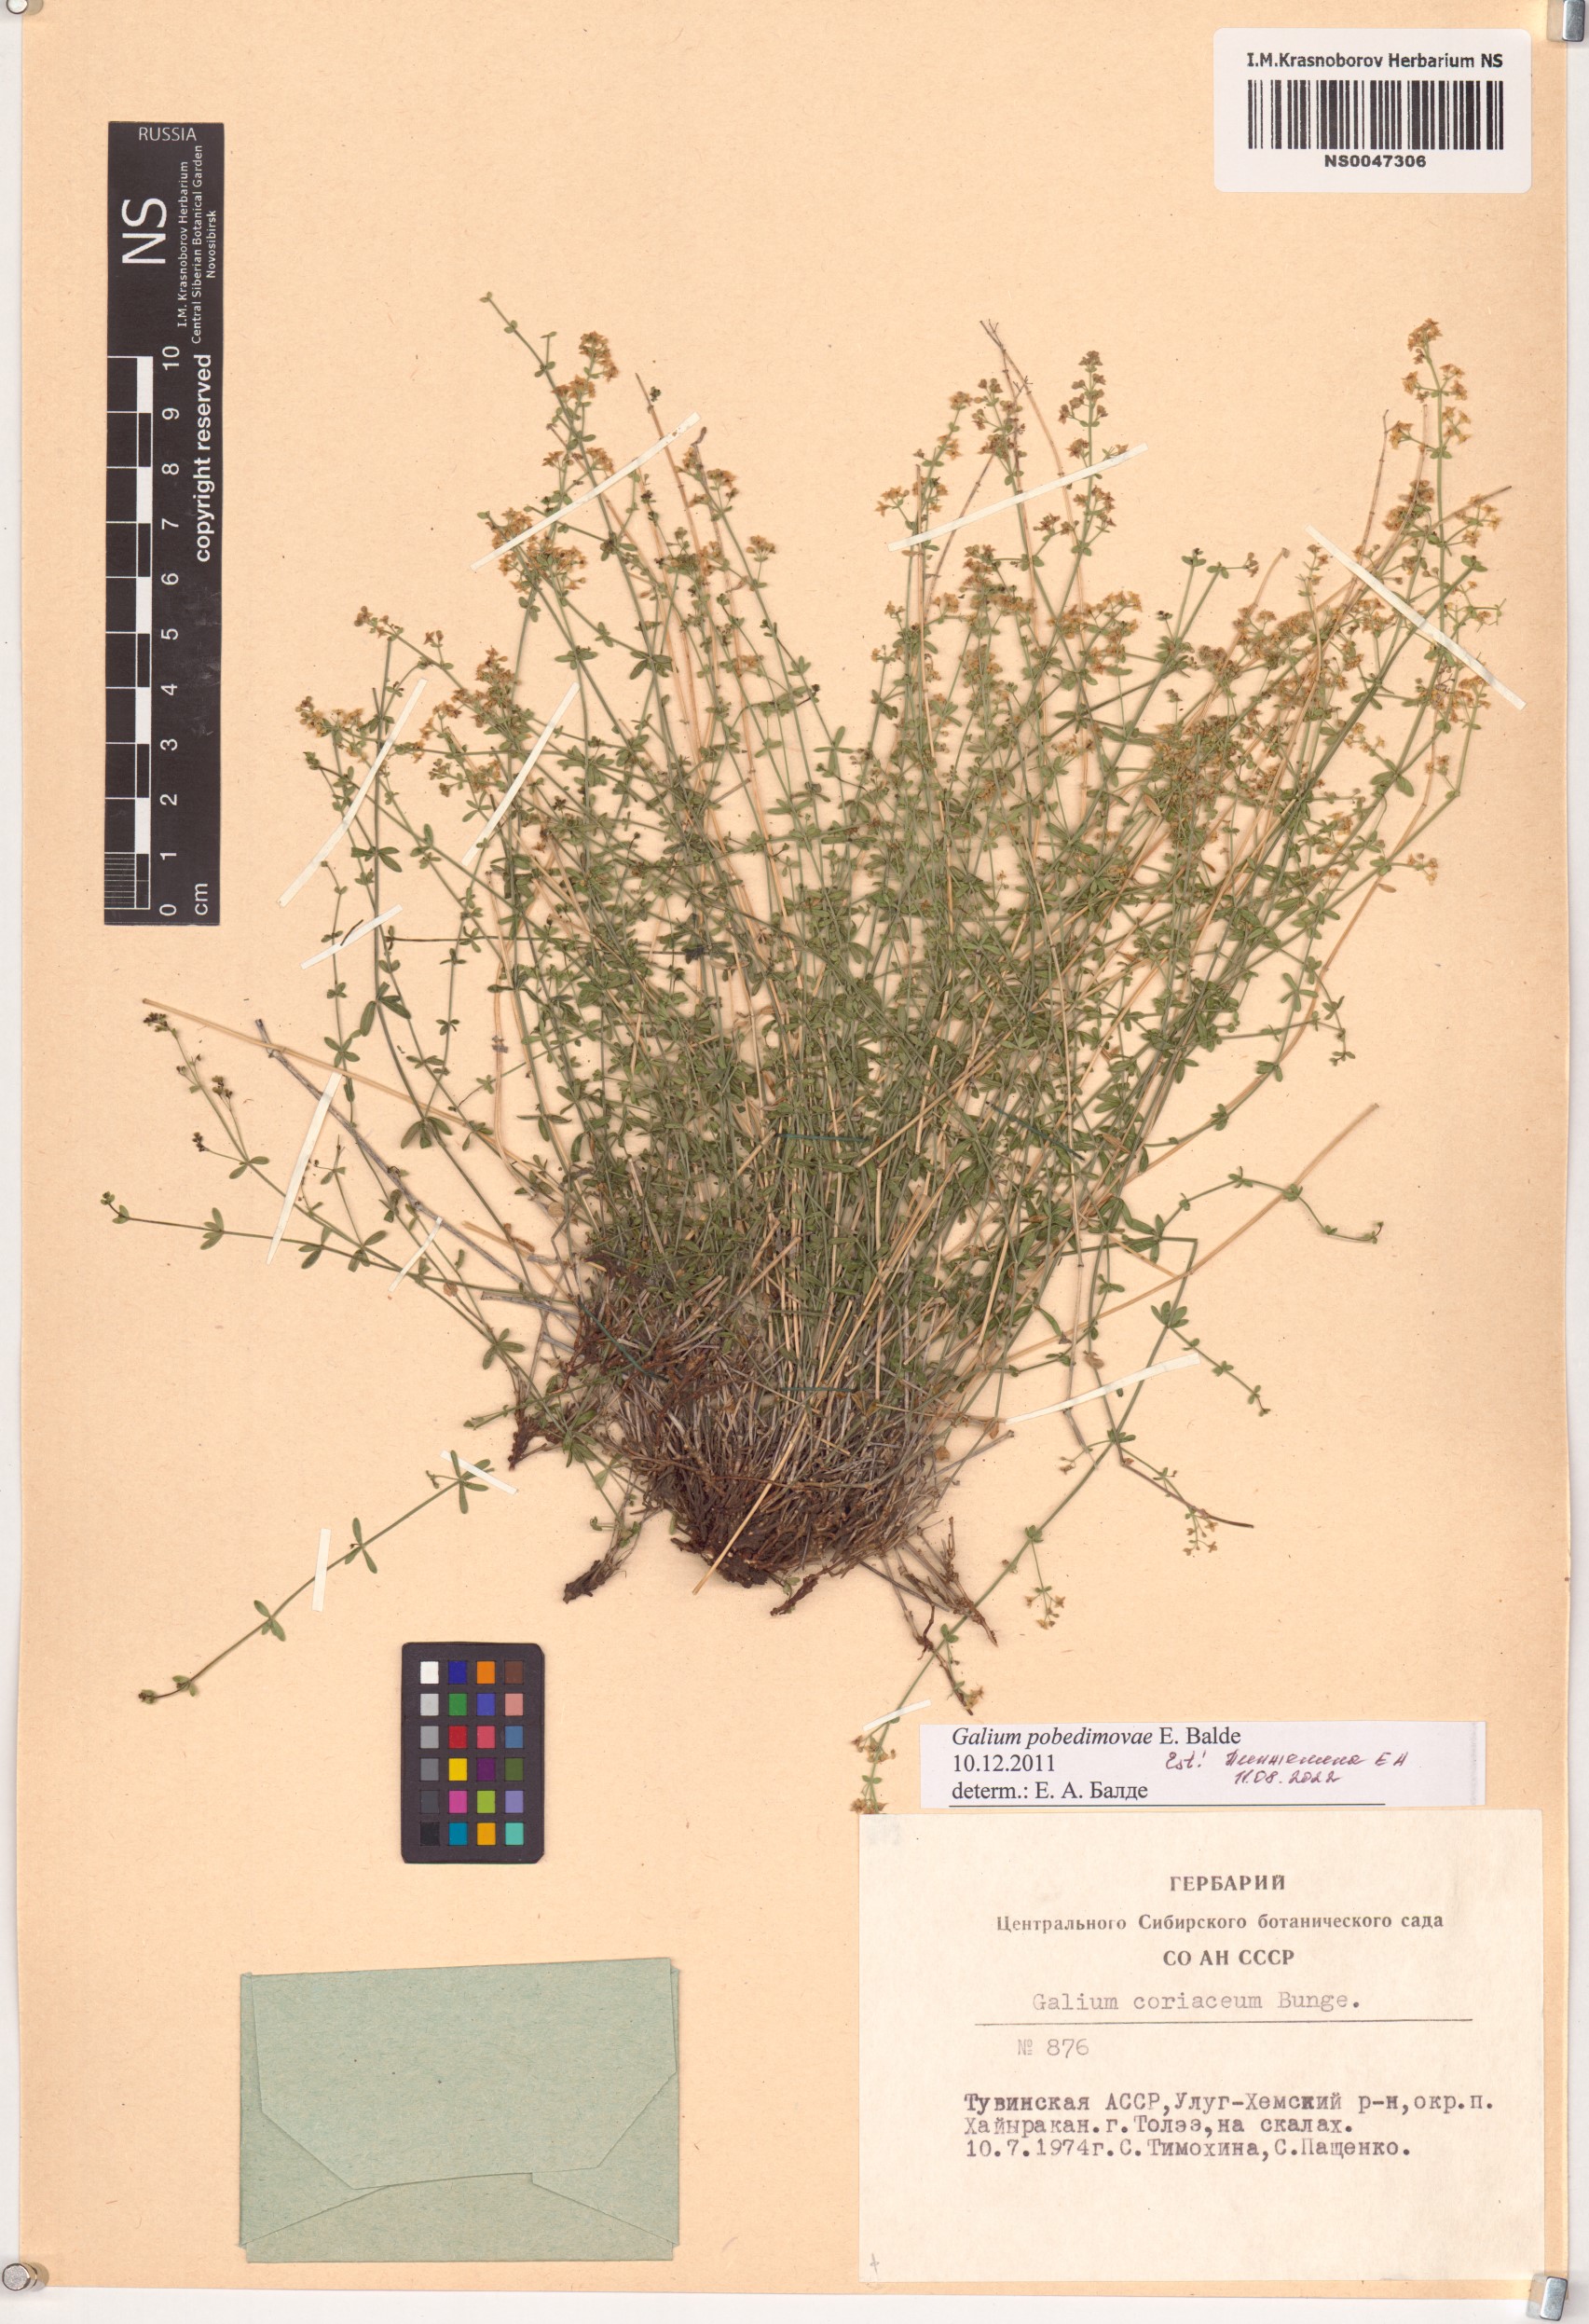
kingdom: Plantae
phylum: Tracheophyta
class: Magnoliopsida
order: Gentianales
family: Rubiaceae
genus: Galium
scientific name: Galium pobedimovae
